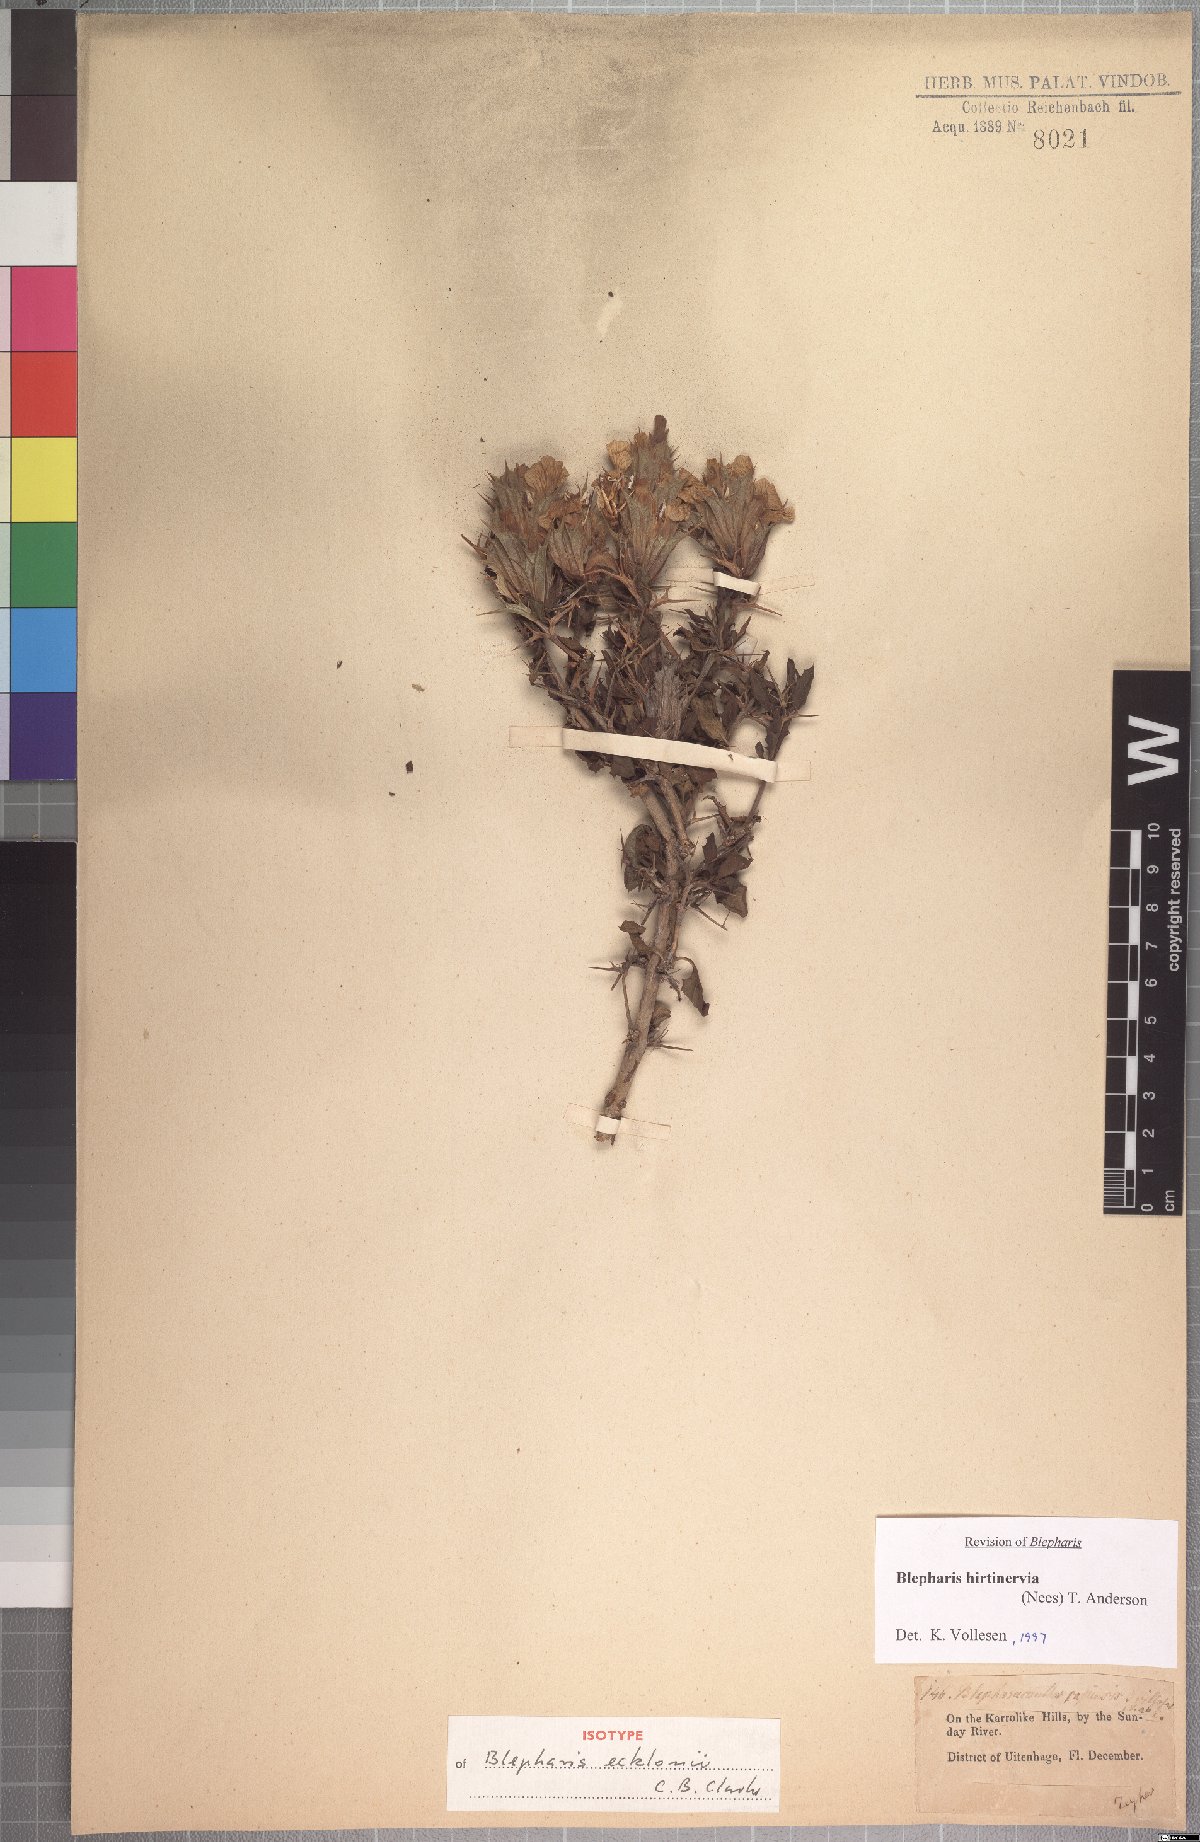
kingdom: Plantae
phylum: Tracheophyta
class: Magnoliopsida
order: Lamiales
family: Acanthaceae
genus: Blepharis
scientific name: Blepharis hirtinervia
